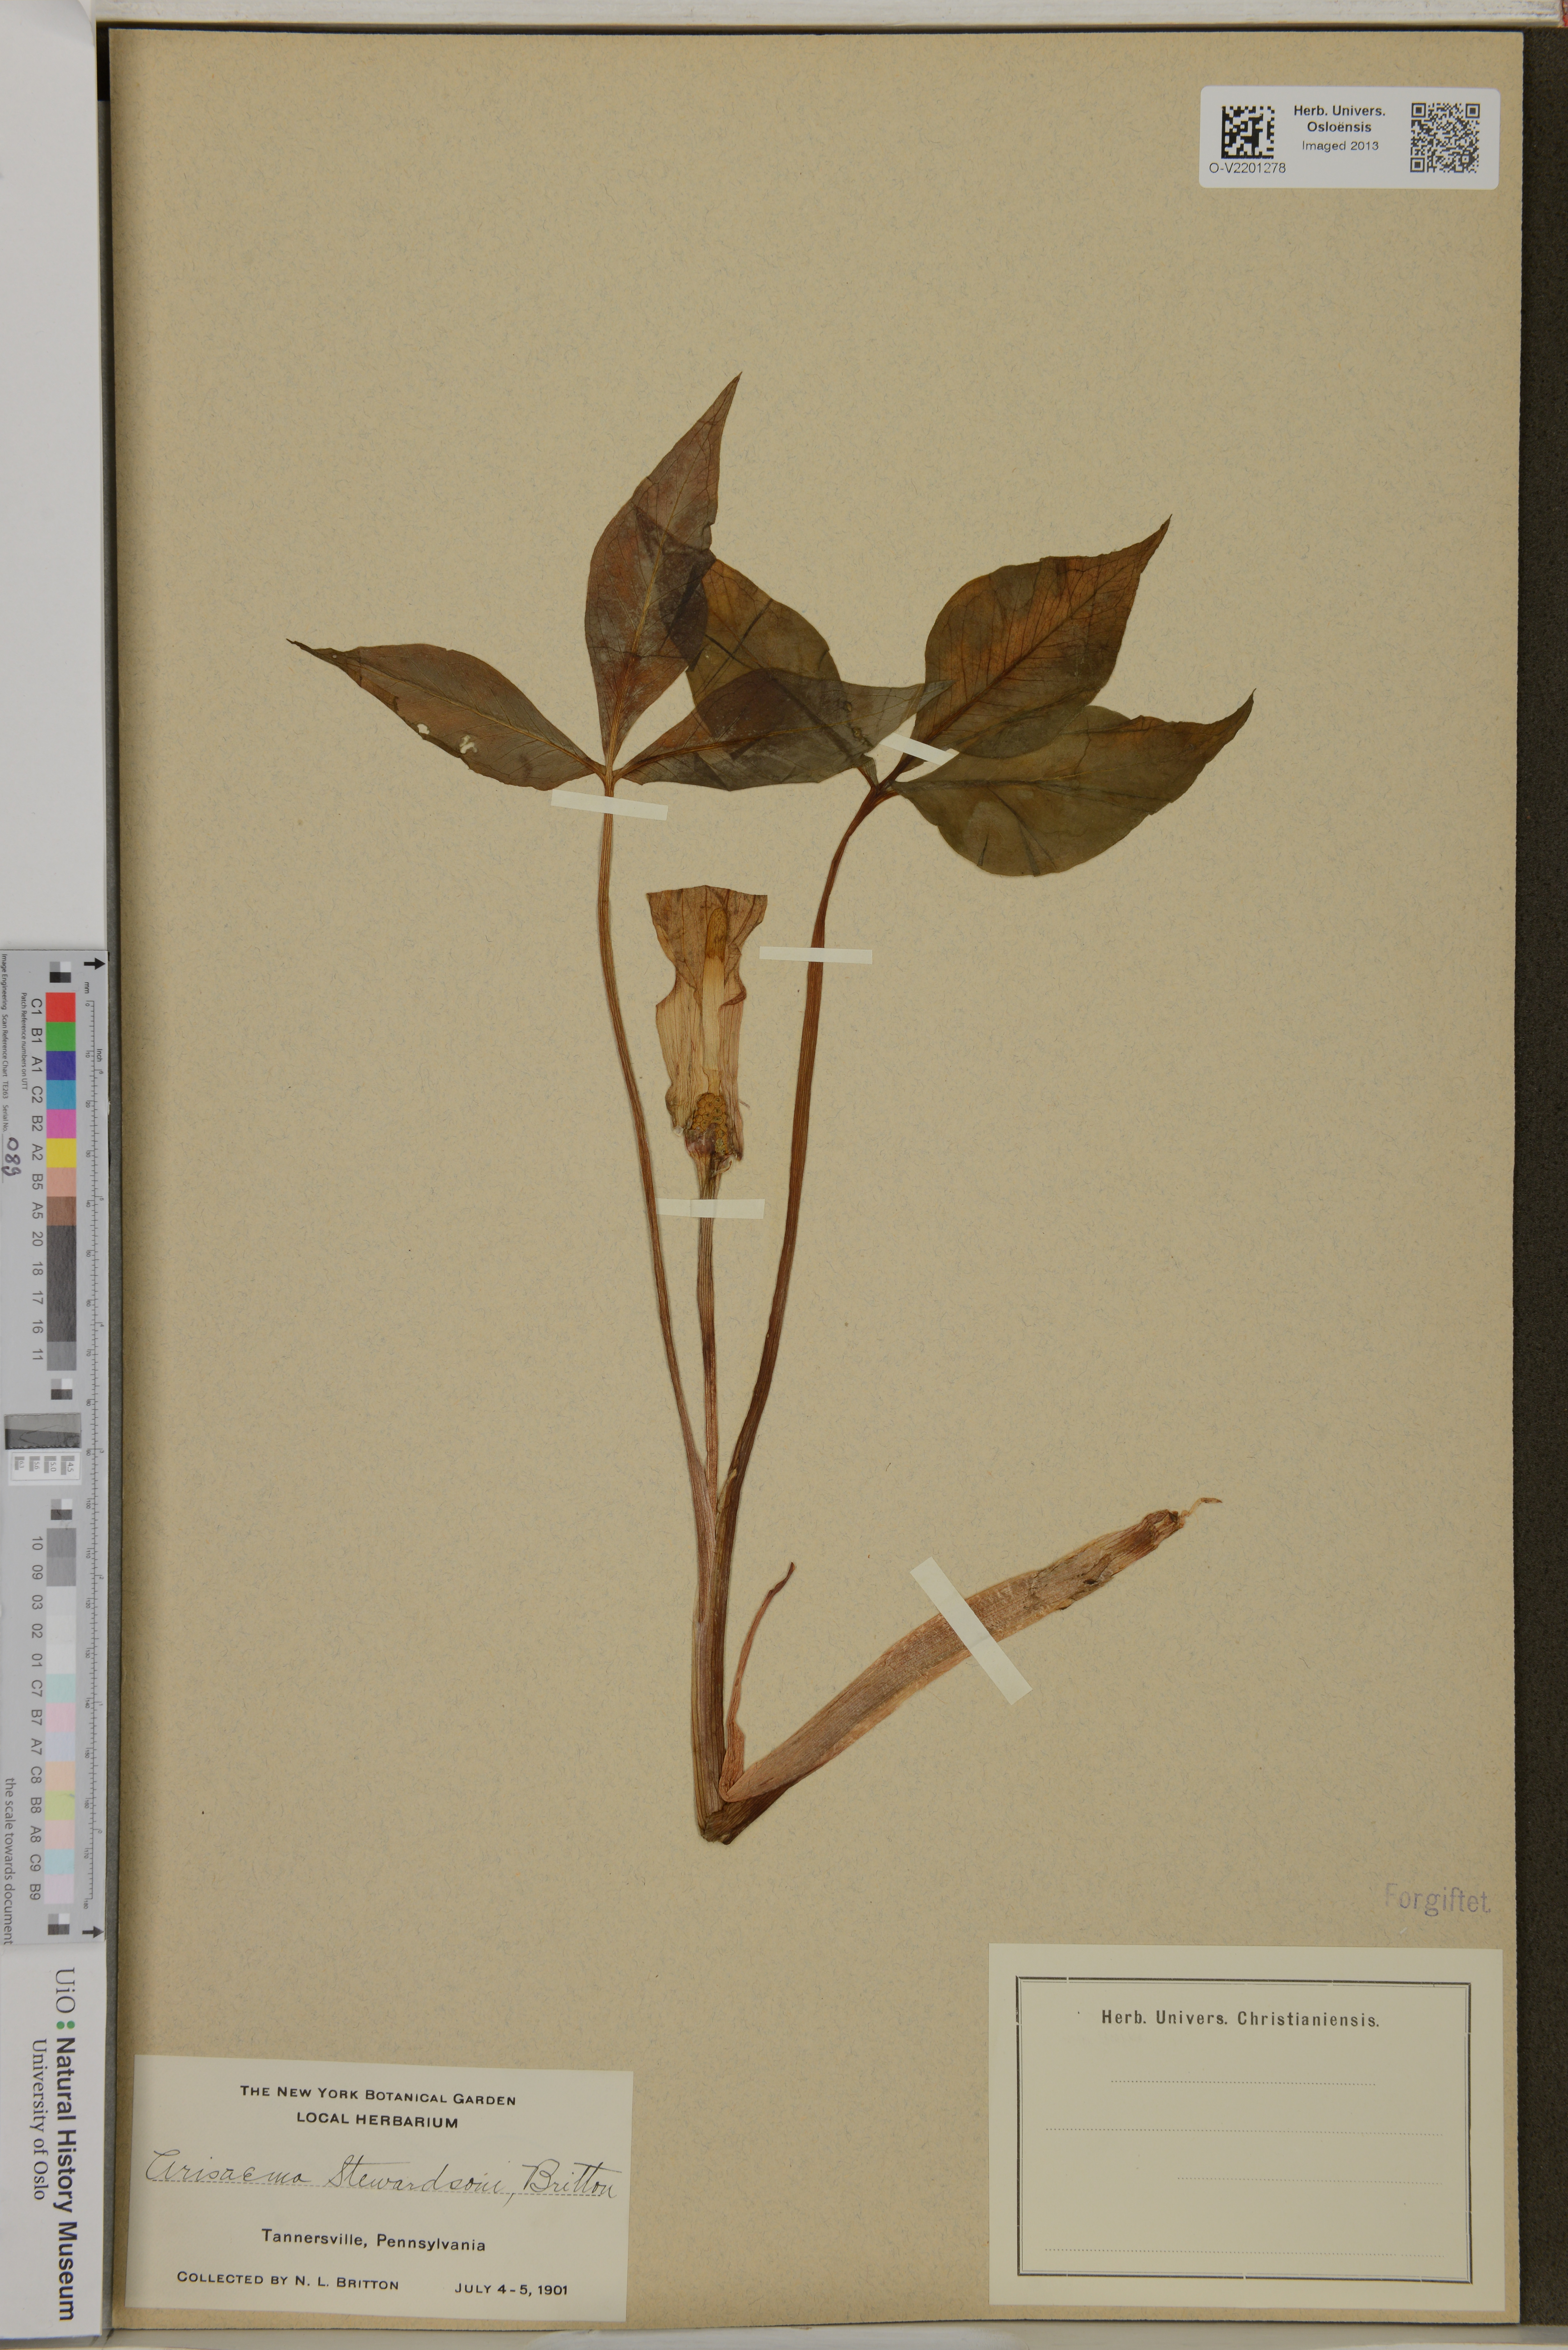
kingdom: Plantae
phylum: Tracheophyta
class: Liliopsida
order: Alismatales
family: Araceae
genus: Arisaema
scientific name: Arisaema stewardsonii
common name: Swamp jack-in-the-pulpit
